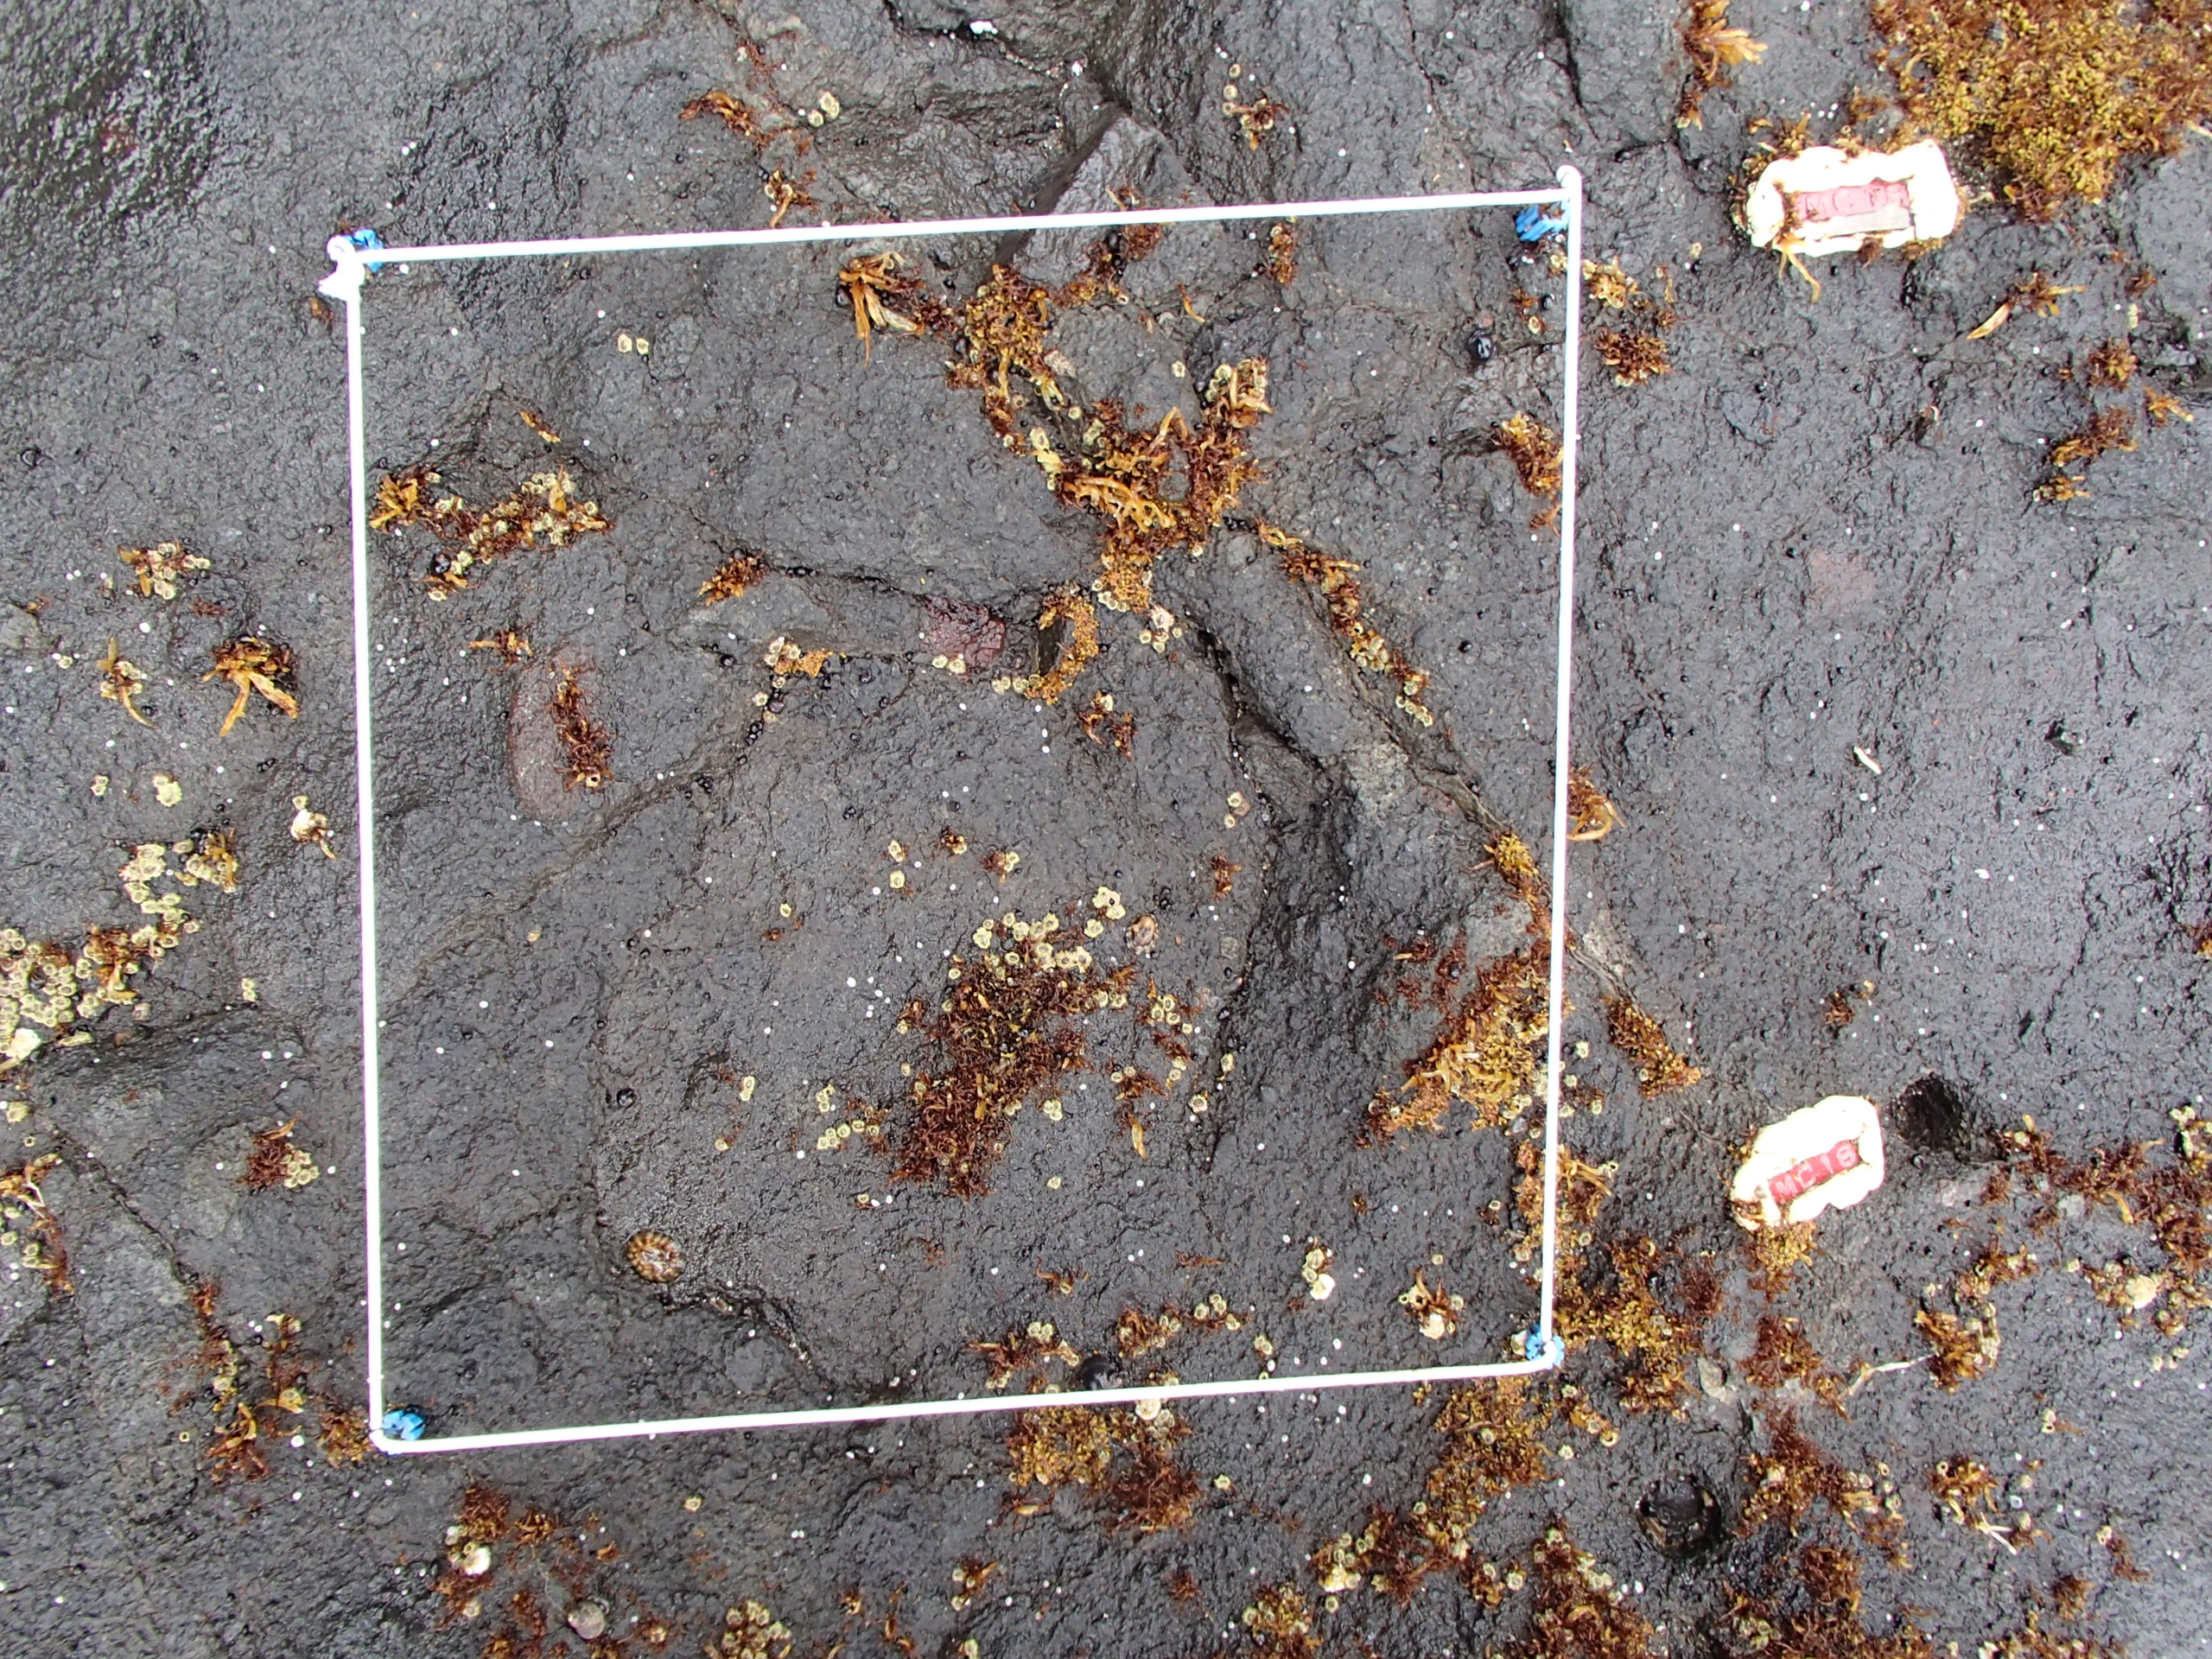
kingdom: Plantae
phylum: Rhodophyta
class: Florideophyceae
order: Gigartinales
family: Endocladiaceae
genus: Gloiopeltis
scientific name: Gloiopeltis furcata
